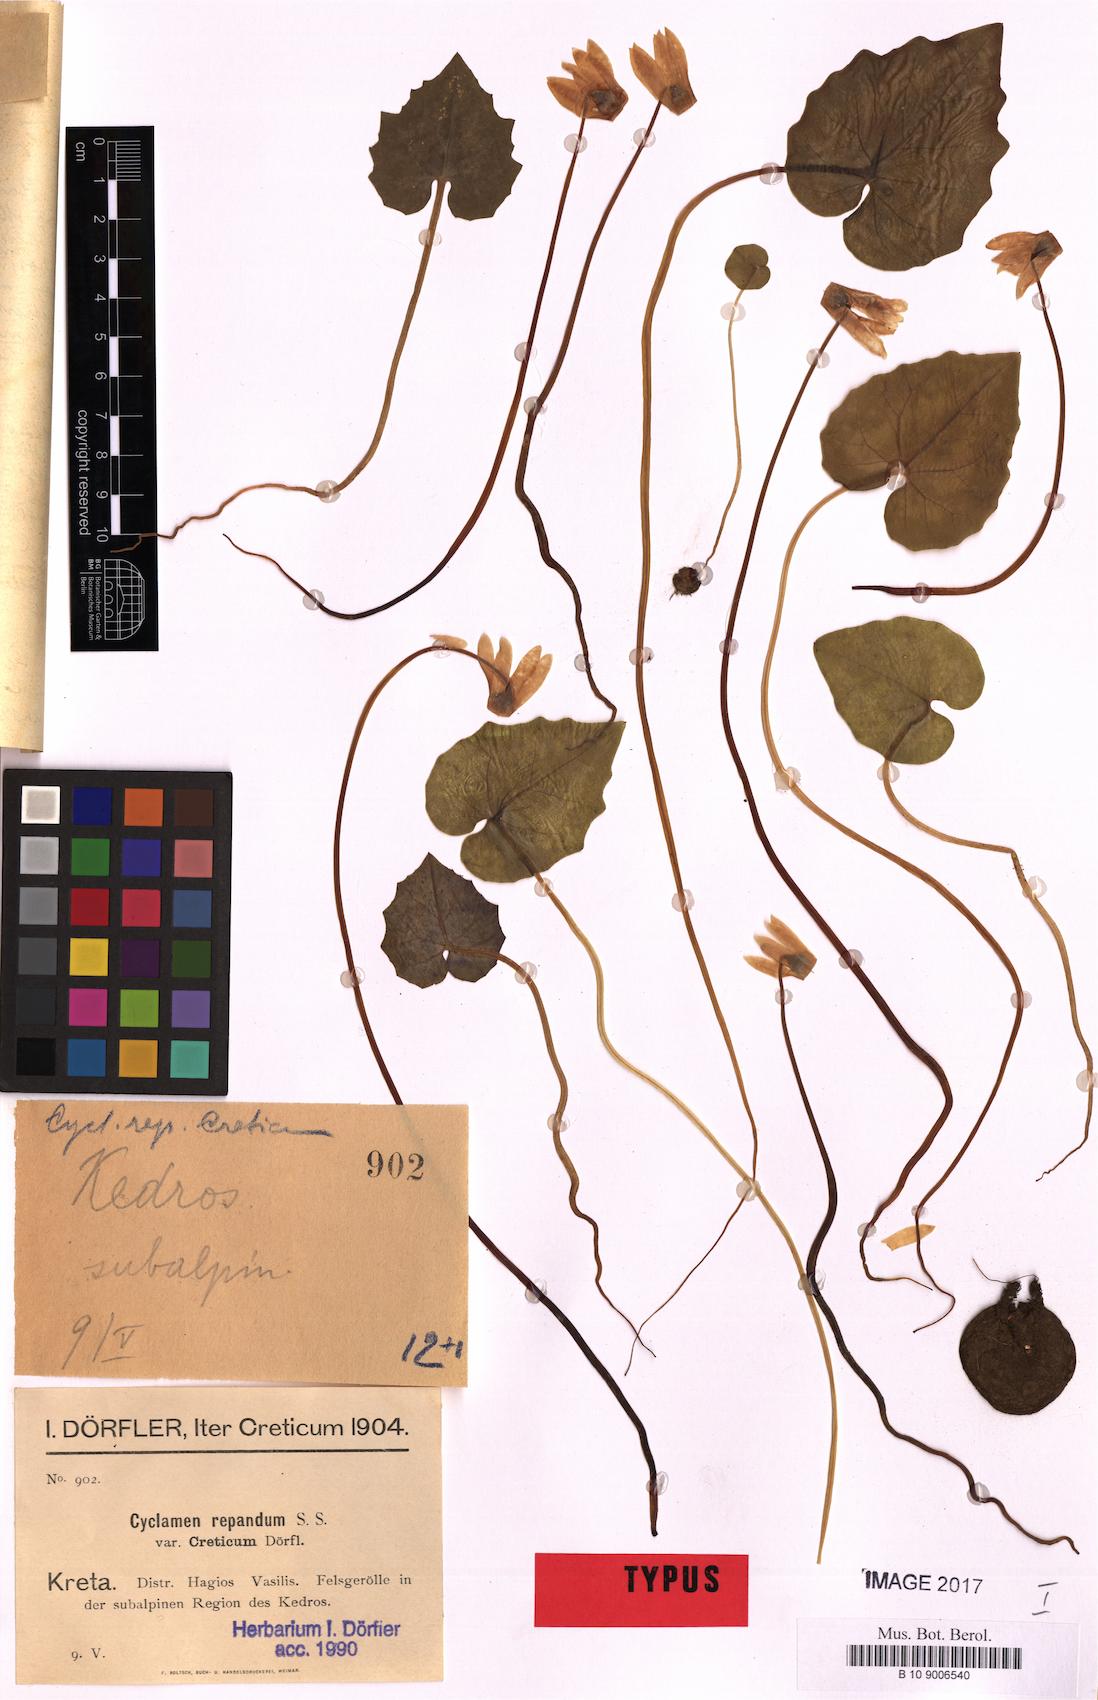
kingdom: Plantae
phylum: Tracheophyta
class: Magnoliopsida
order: Ericales
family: Primulaceae
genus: Cyclamen
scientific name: Cyclamen creticum
